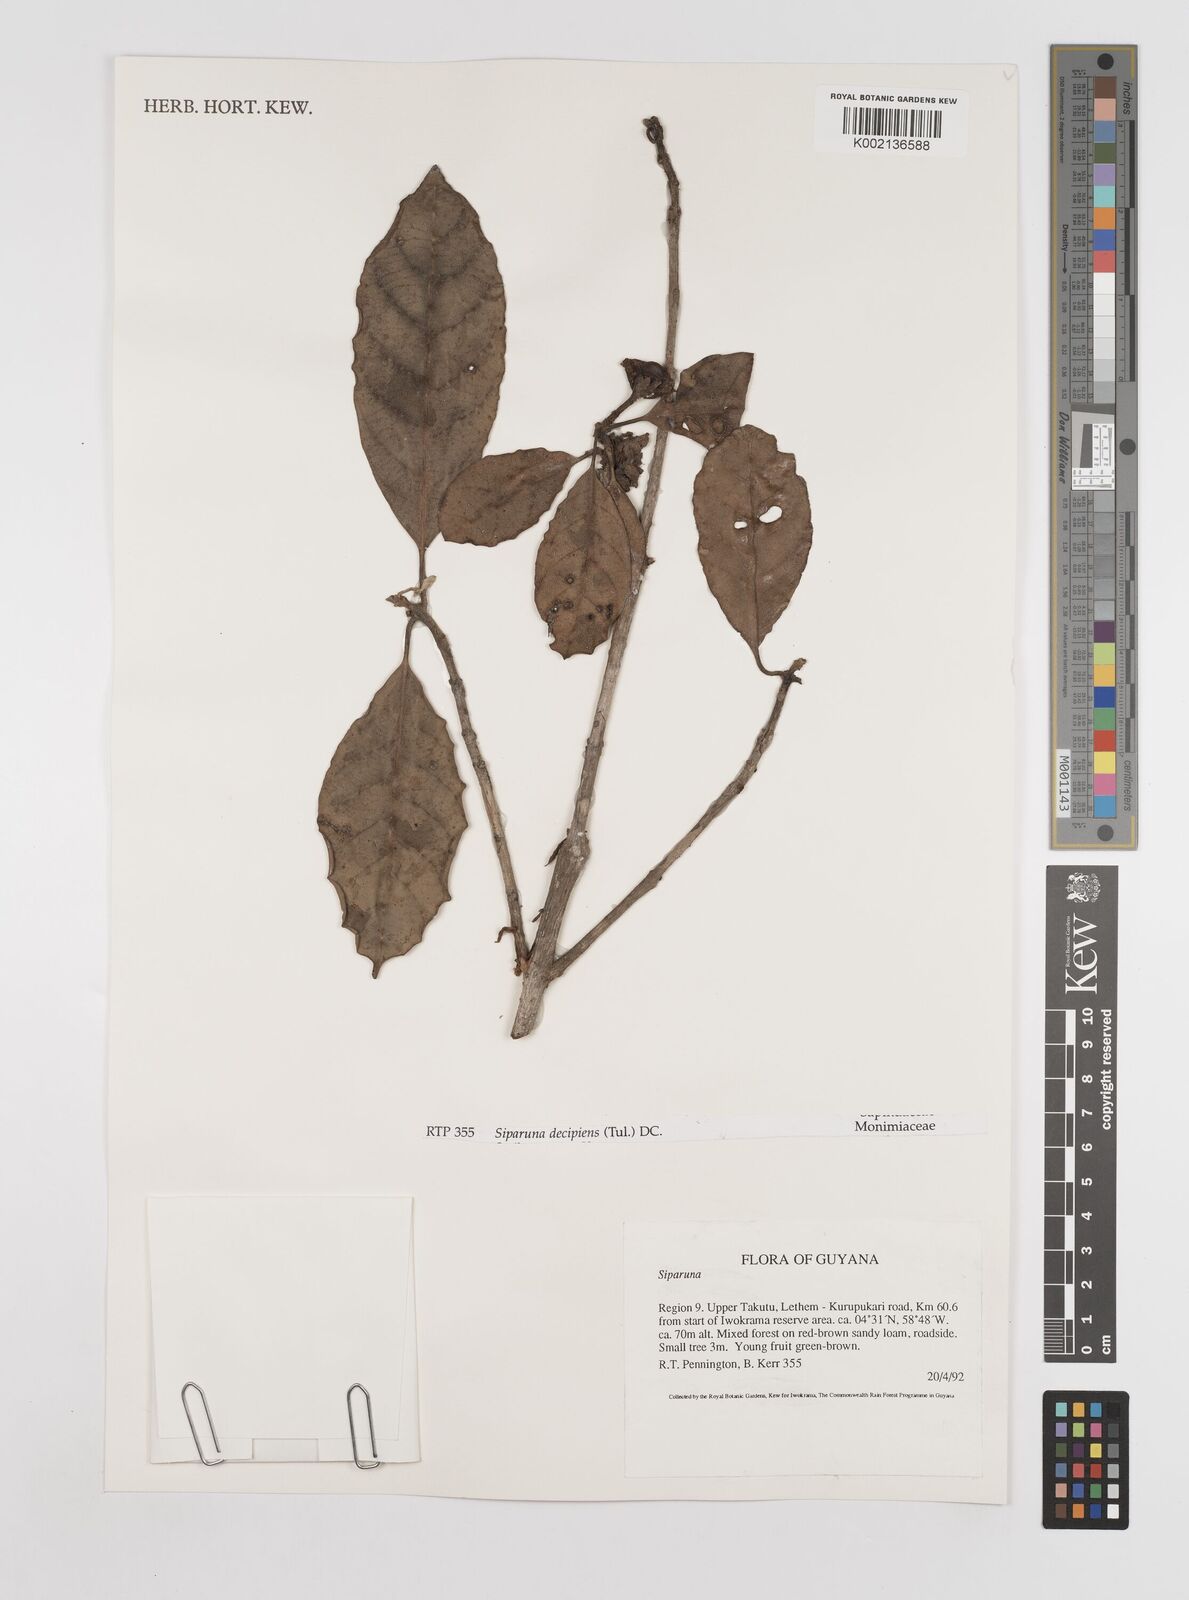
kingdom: Plantae
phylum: Tracheophyta
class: Magnoliopsida
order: Laurales
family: Siparunaceae
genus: Siparuna
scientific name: Siparuna decipiens
